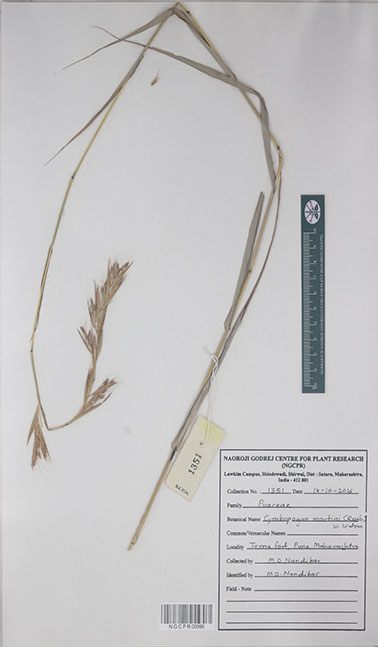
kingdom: Plantae
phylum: Tracheophyta
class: Liliopsida
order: Poales
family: Poaceae
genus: Cymbopogon
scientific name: Cymbopogon martini
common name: Ginger grass
